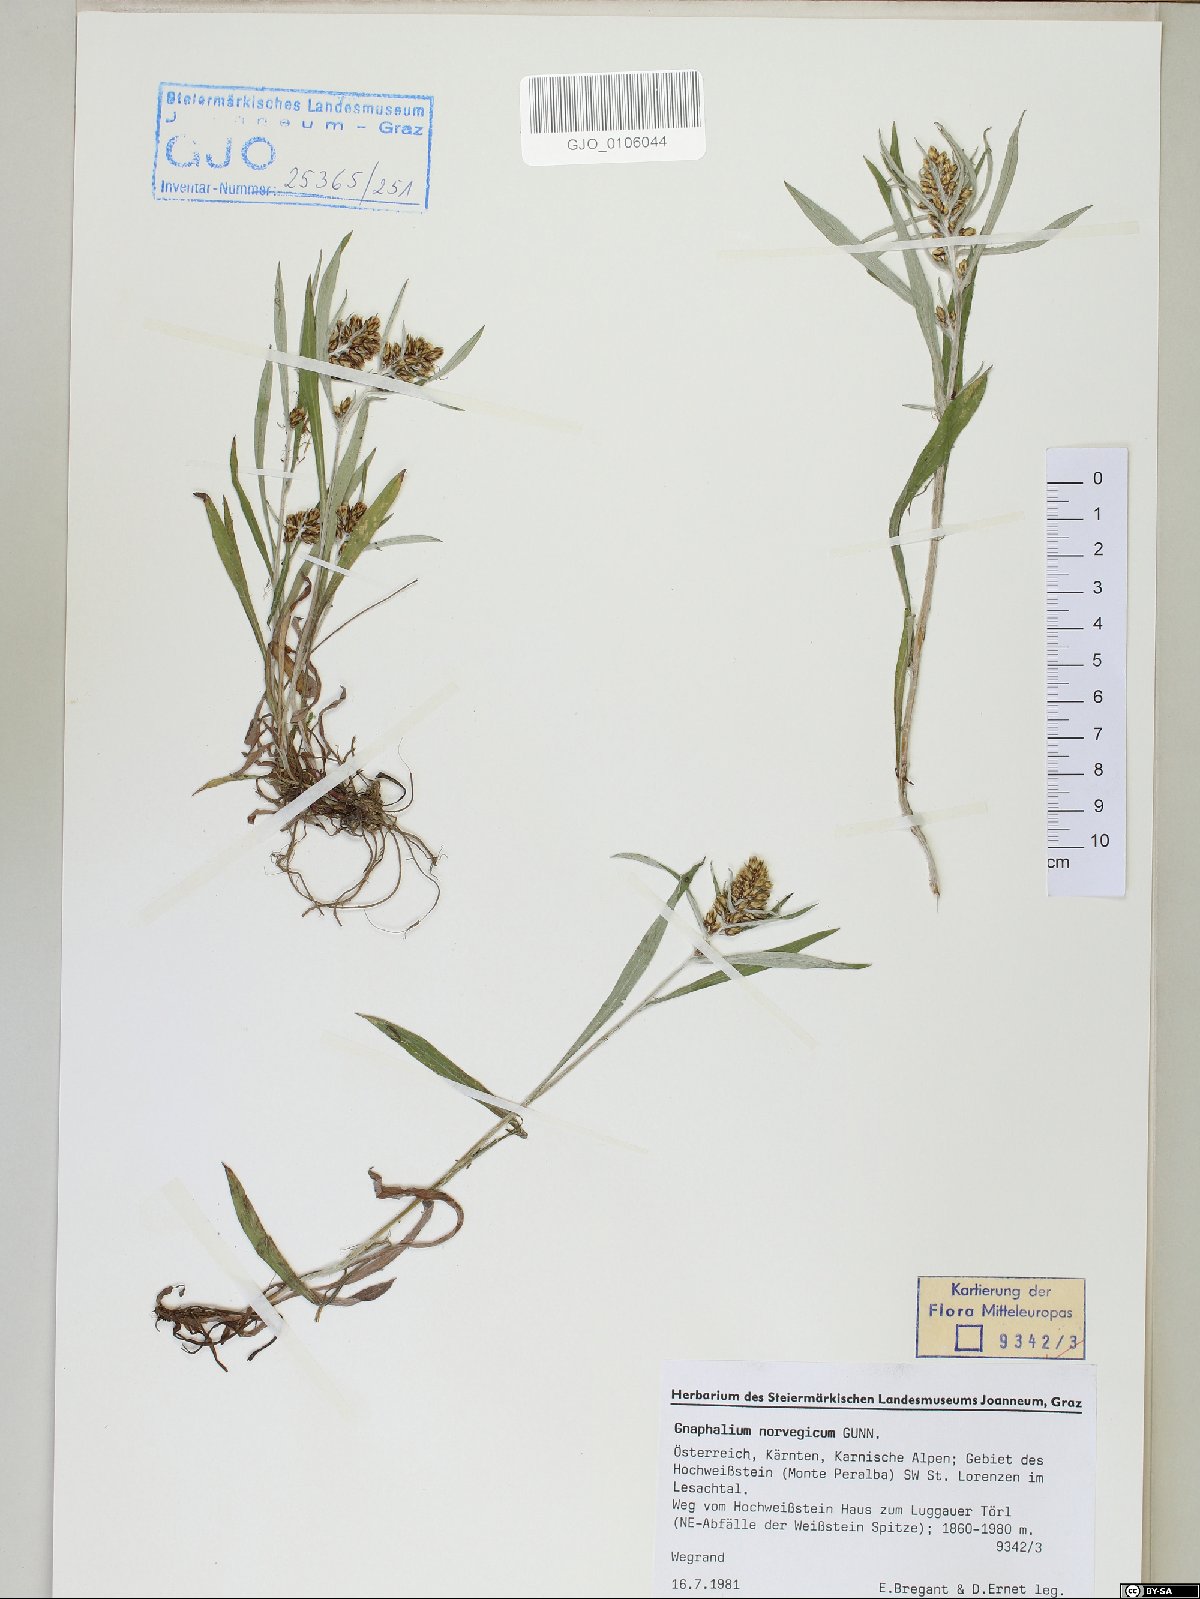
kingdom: Plantae
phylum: Tracheophyta
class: Magnoliopsida
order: Asterales
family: Asteraceae
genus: Omalotheca
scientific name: Omalotheca norvegica
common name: Norwegian arctic-cudweed
